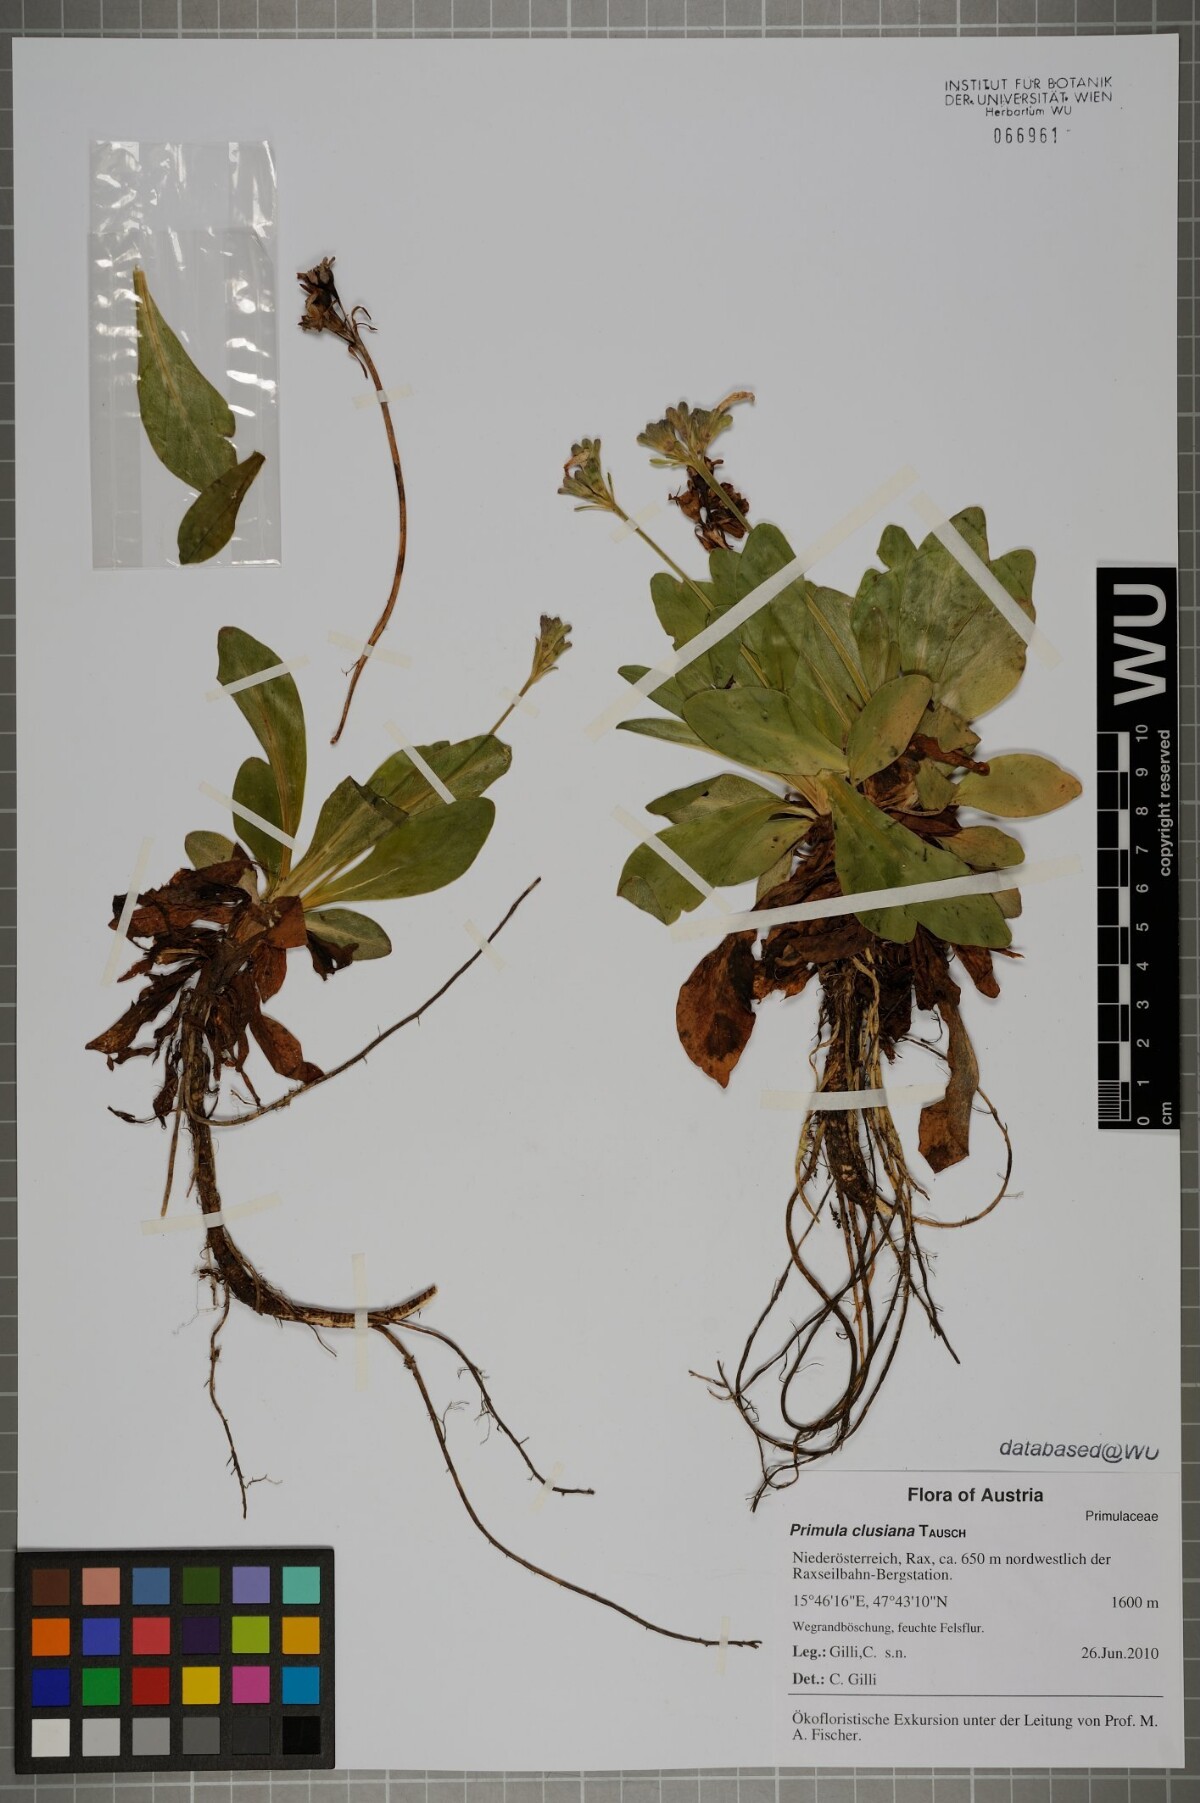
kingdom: Plantae
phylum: Tracheophyta
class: Magnoliopsida
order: Ericales
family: Primulaceae
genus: Primula
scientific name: Primula clusiana
